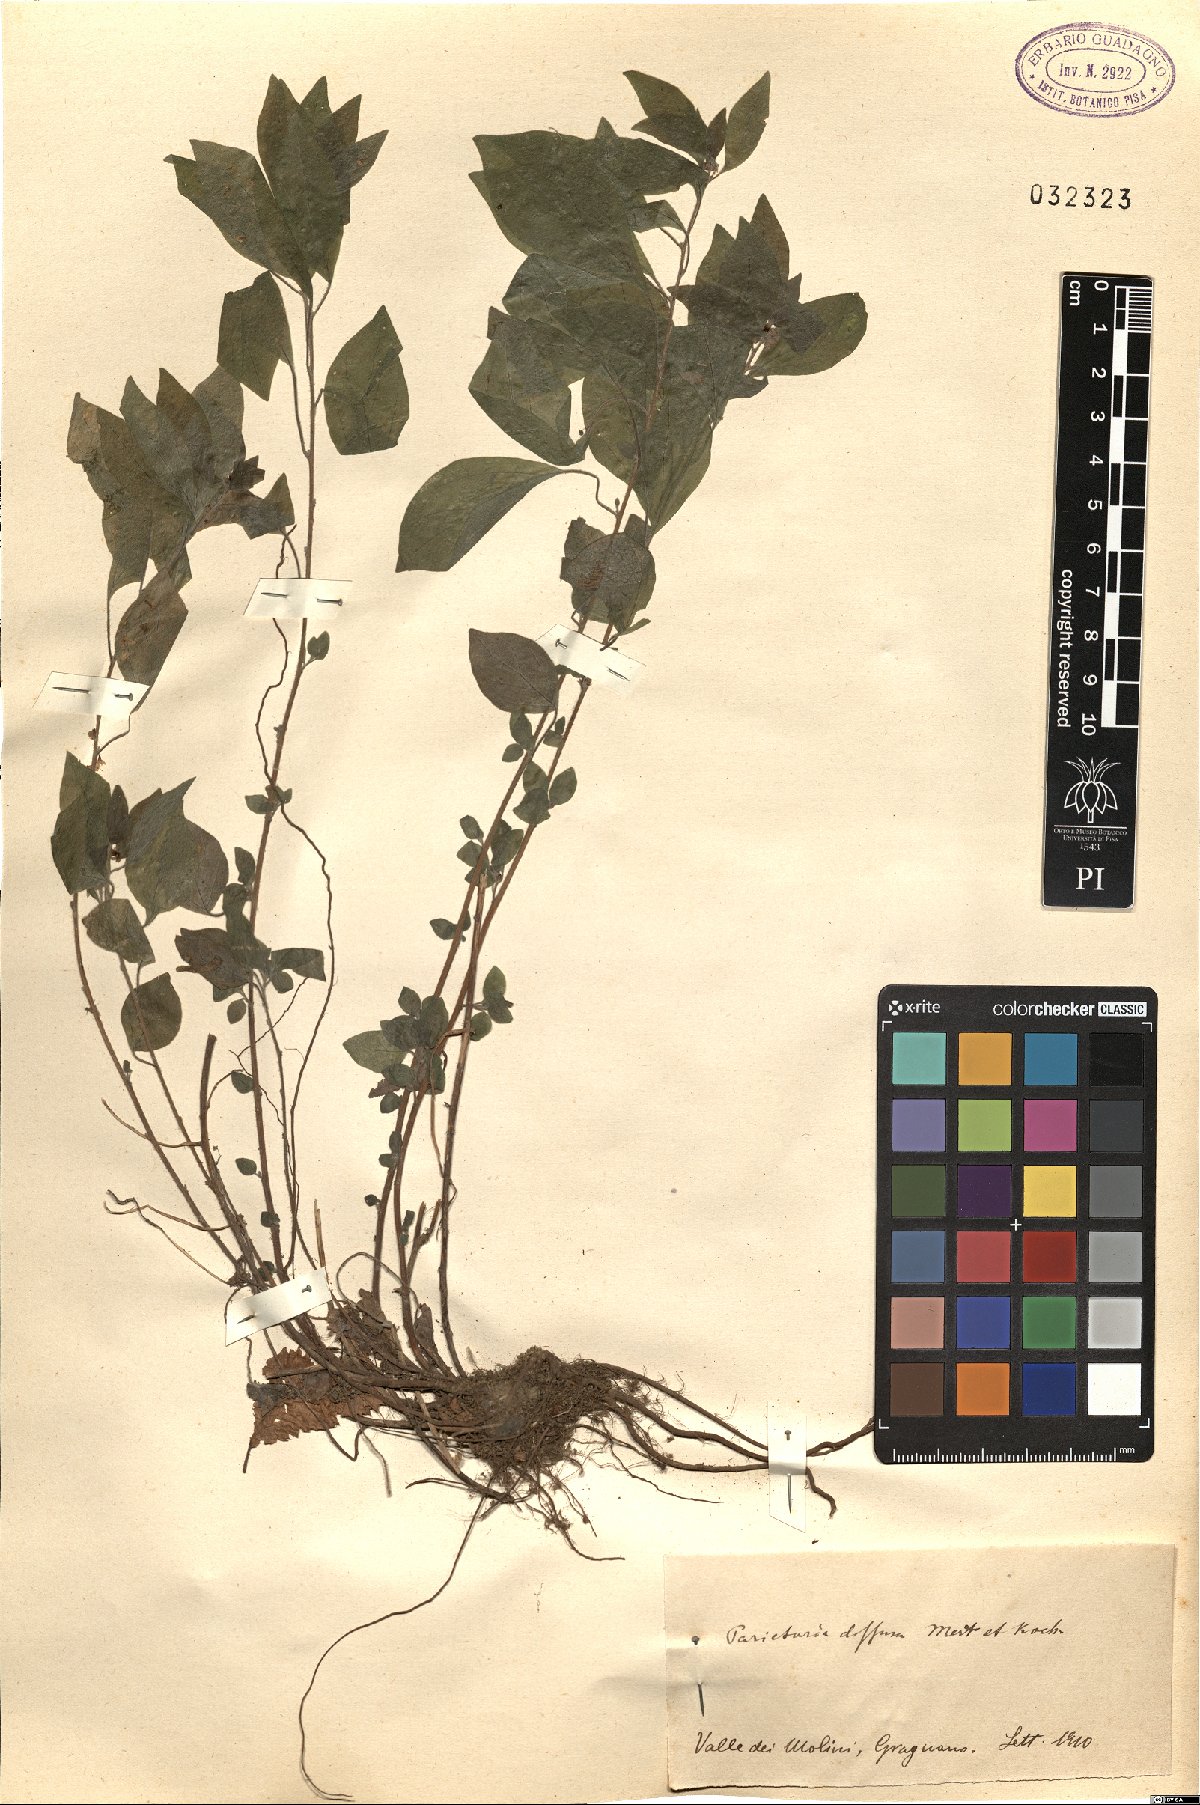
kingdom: Plantae
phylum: Tracheophyta
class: Magnoliopsida
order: Rosales
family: Urticaceae
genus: Parietaria
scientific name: Parietaria judaica
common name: Pellitory-of-the-wall
